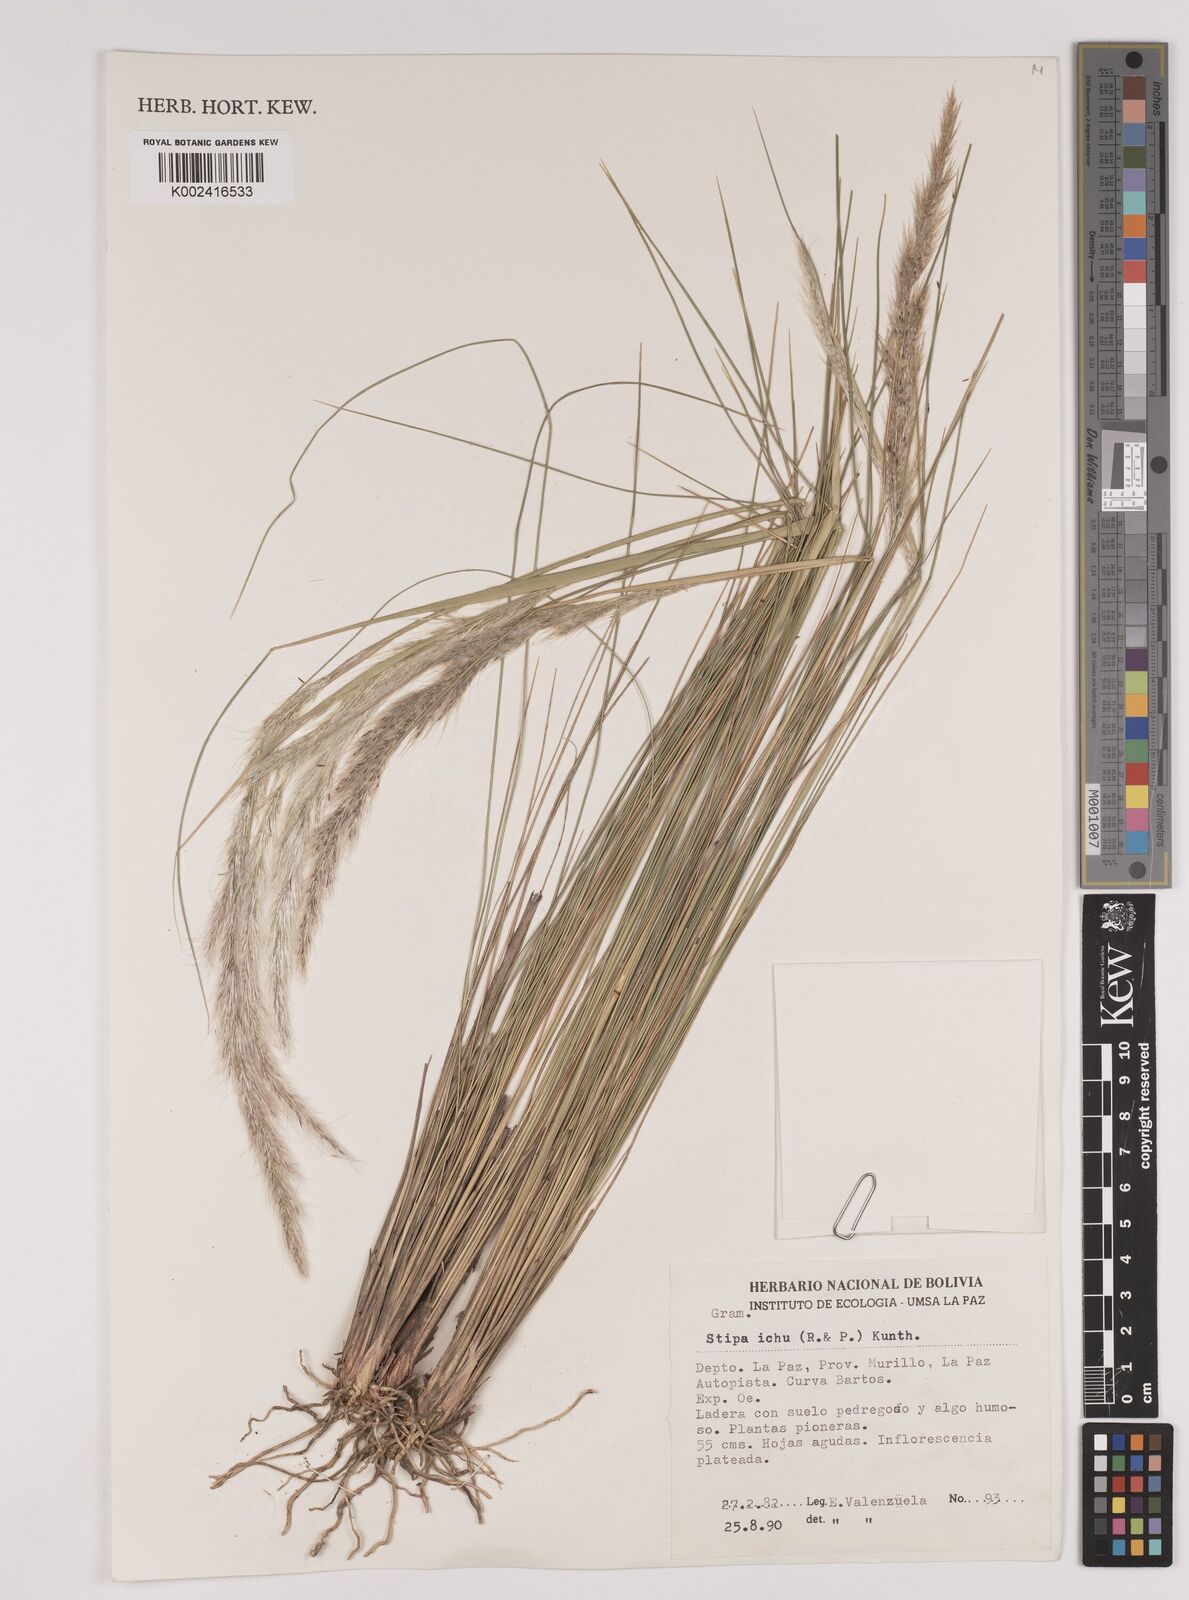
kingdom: Plantae
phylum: Tracheophyta
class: Liliopsida
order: Poales
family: Poaceae
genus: Stipa
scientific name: Stipa
